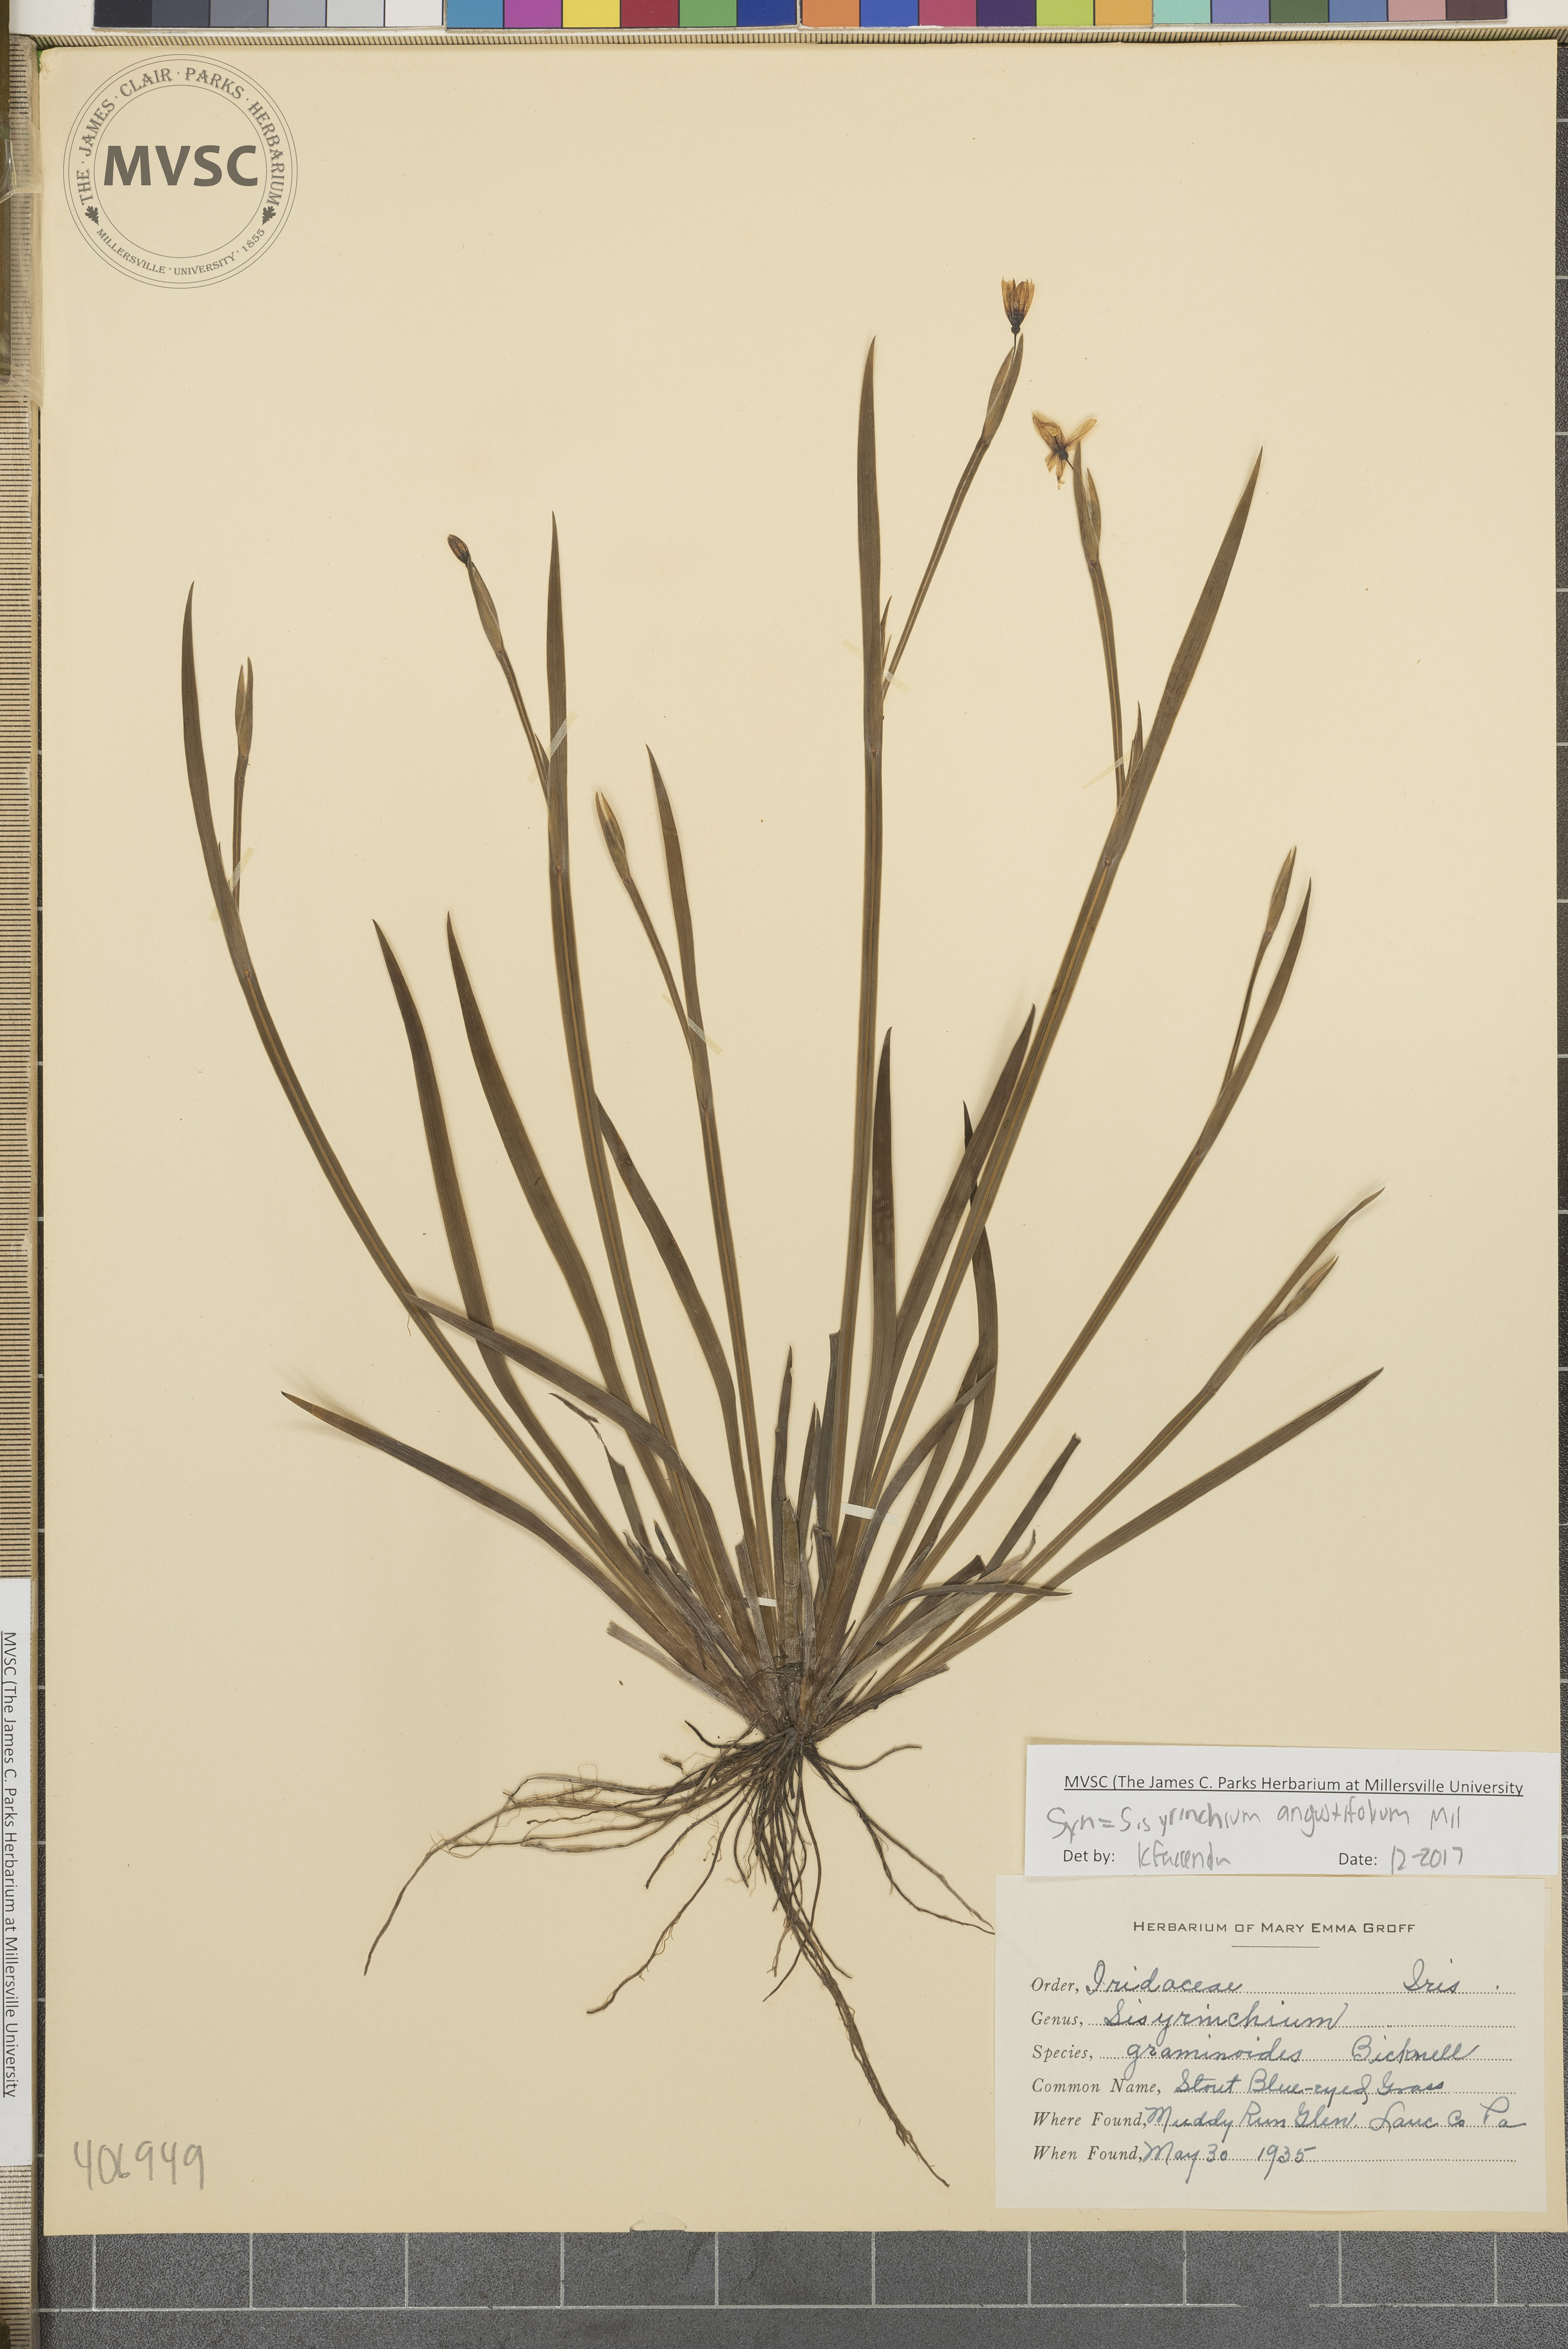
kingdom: Plantae
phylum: Tracheophyta
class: Liliopsida
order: Asparagales
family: Iridaceae
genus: Sisyrinchium
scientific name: Sisyrinchium angustifolium
